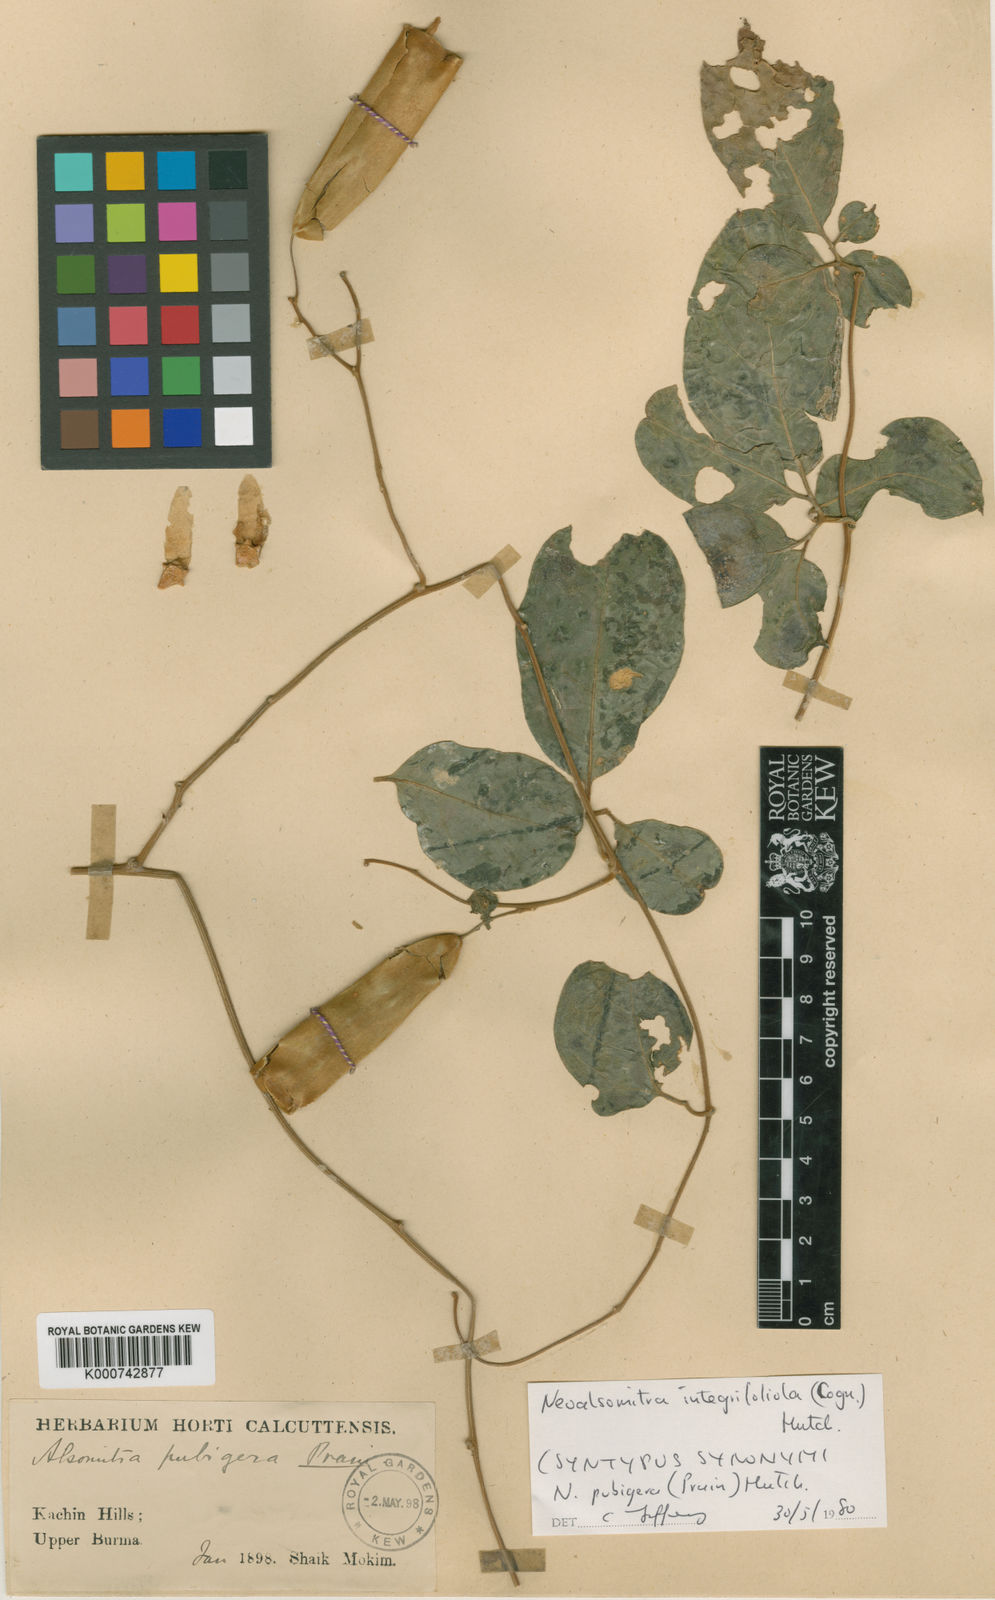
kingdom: Plantae
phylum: Tracheophyta
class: Magnoliopsida
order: Cucurbitales
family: Cucurbitaceae
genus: Neoalsomitra
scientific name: Neoalsomitra clavigera
